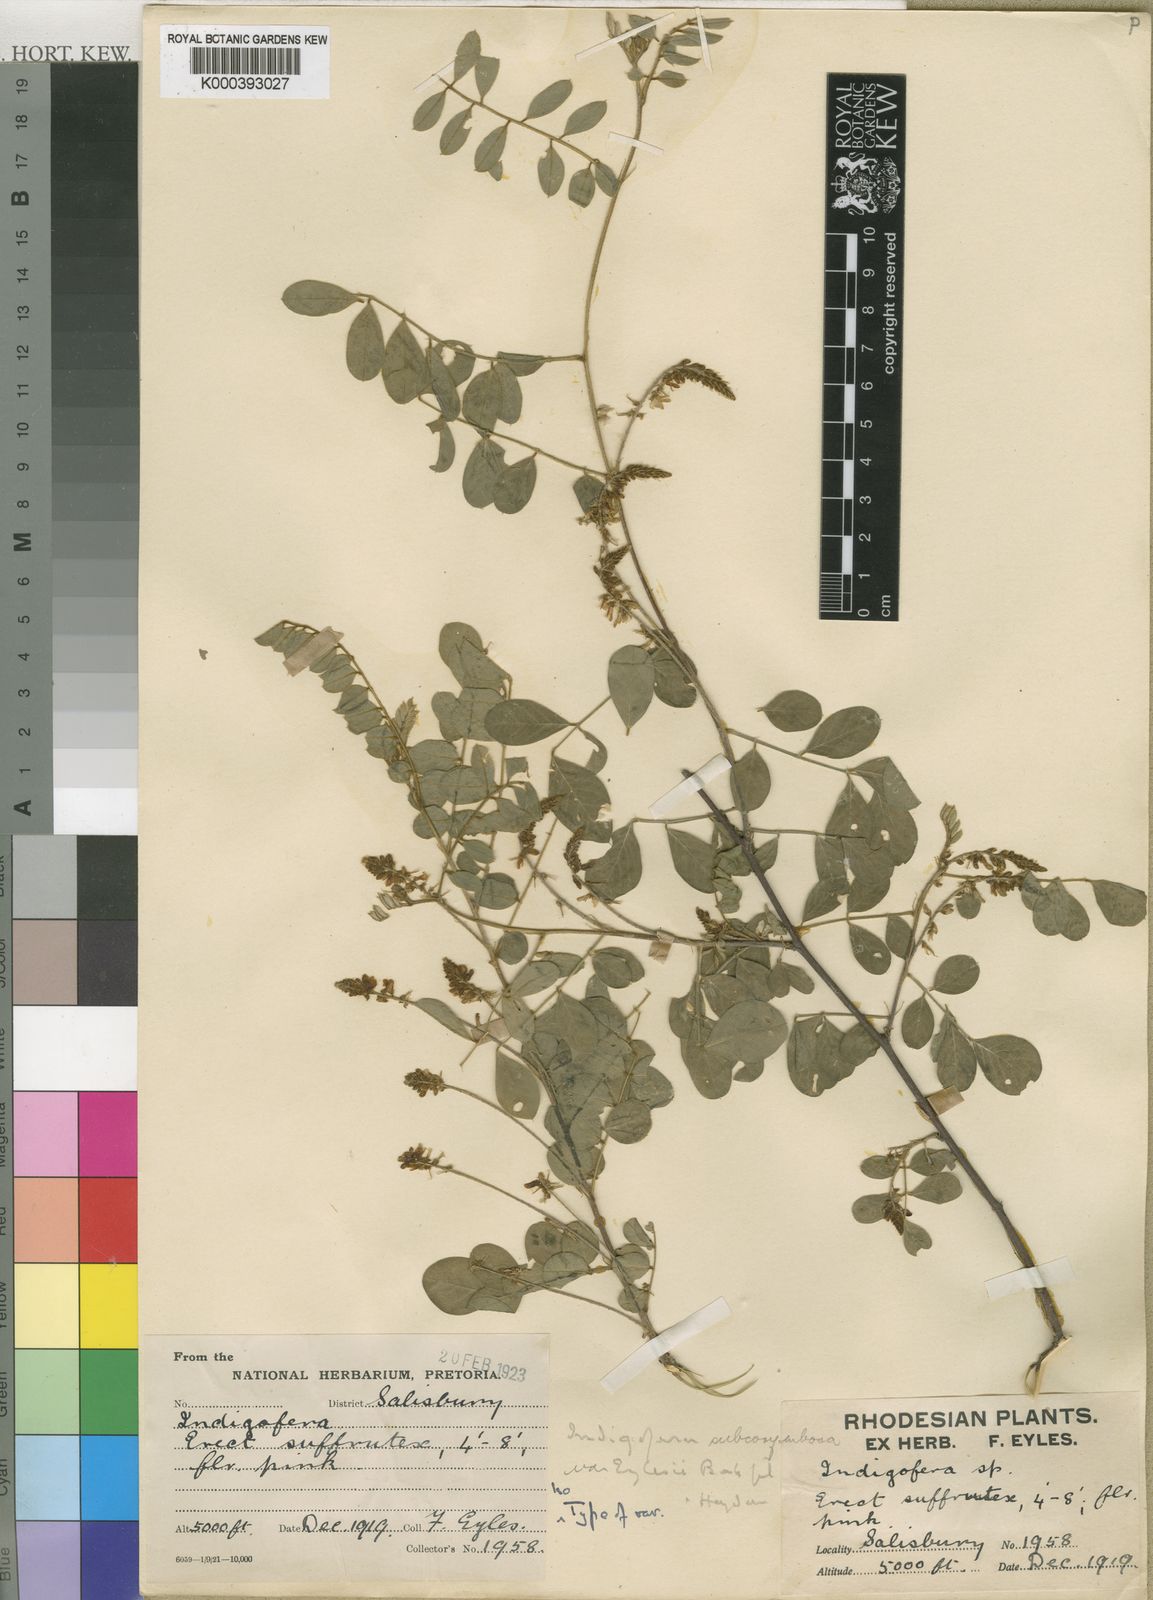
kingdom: Plantae
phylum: Tracheophyta
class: Magnoliopsida
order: Fabales
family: Fabaceae
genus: Indigofera
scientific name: Indigofera subcorymbosa
